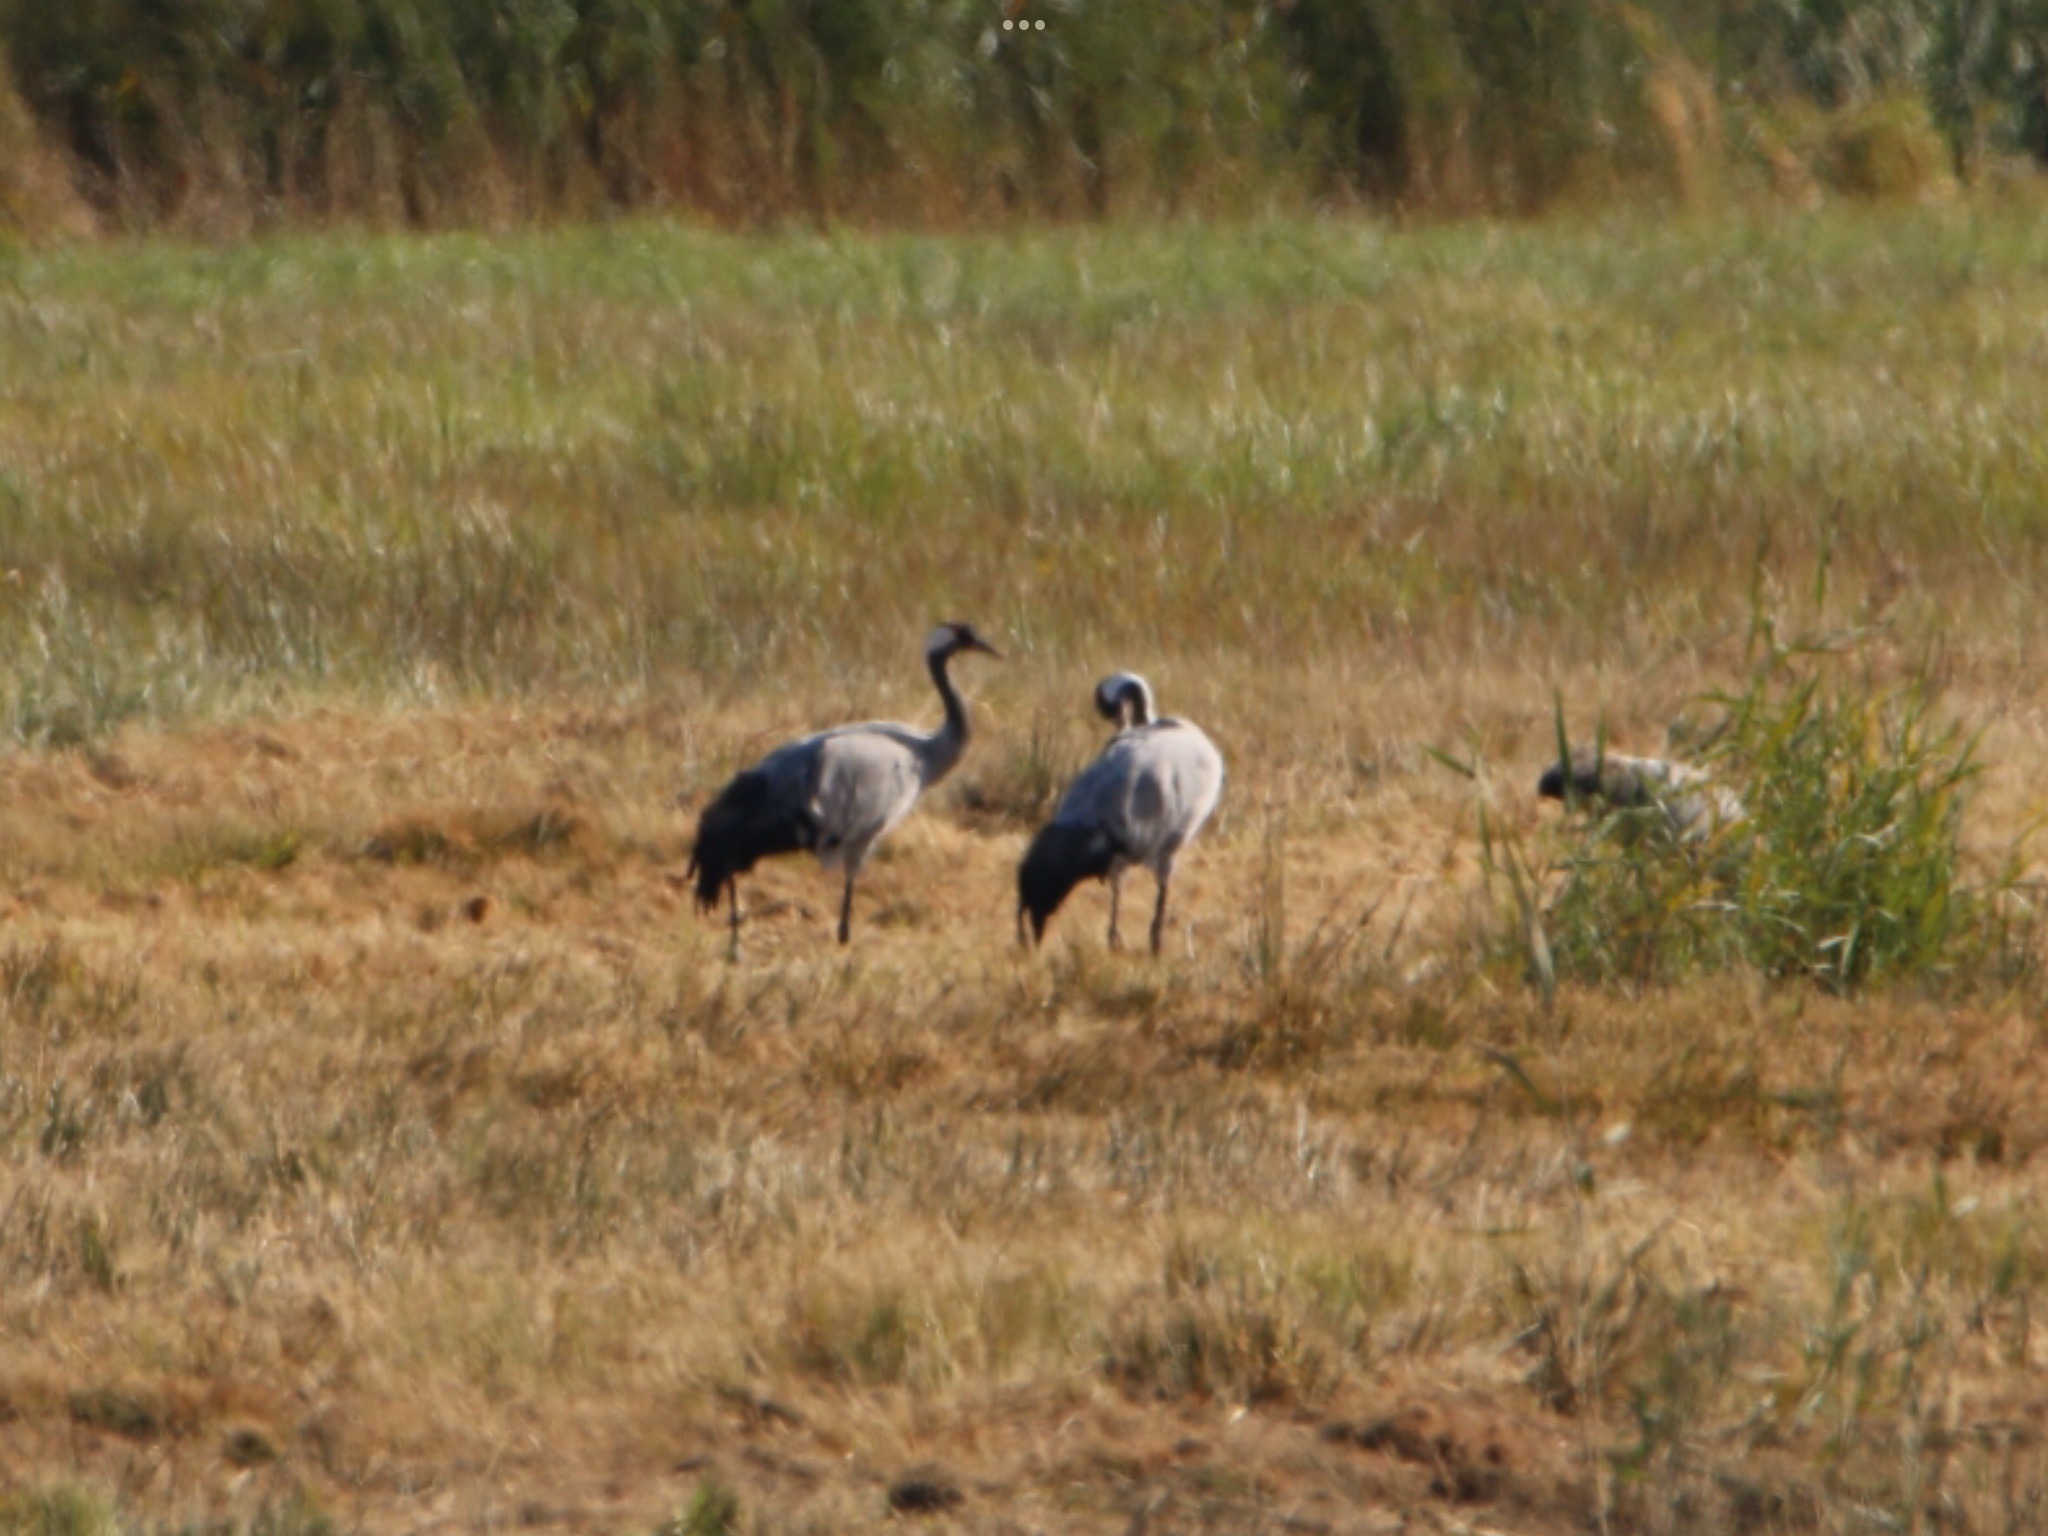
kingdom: Animalia
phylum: Chordata
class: Aves
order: Gruiformes
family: Gruidae
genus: Grus
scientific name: Grus grus
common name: Trane
